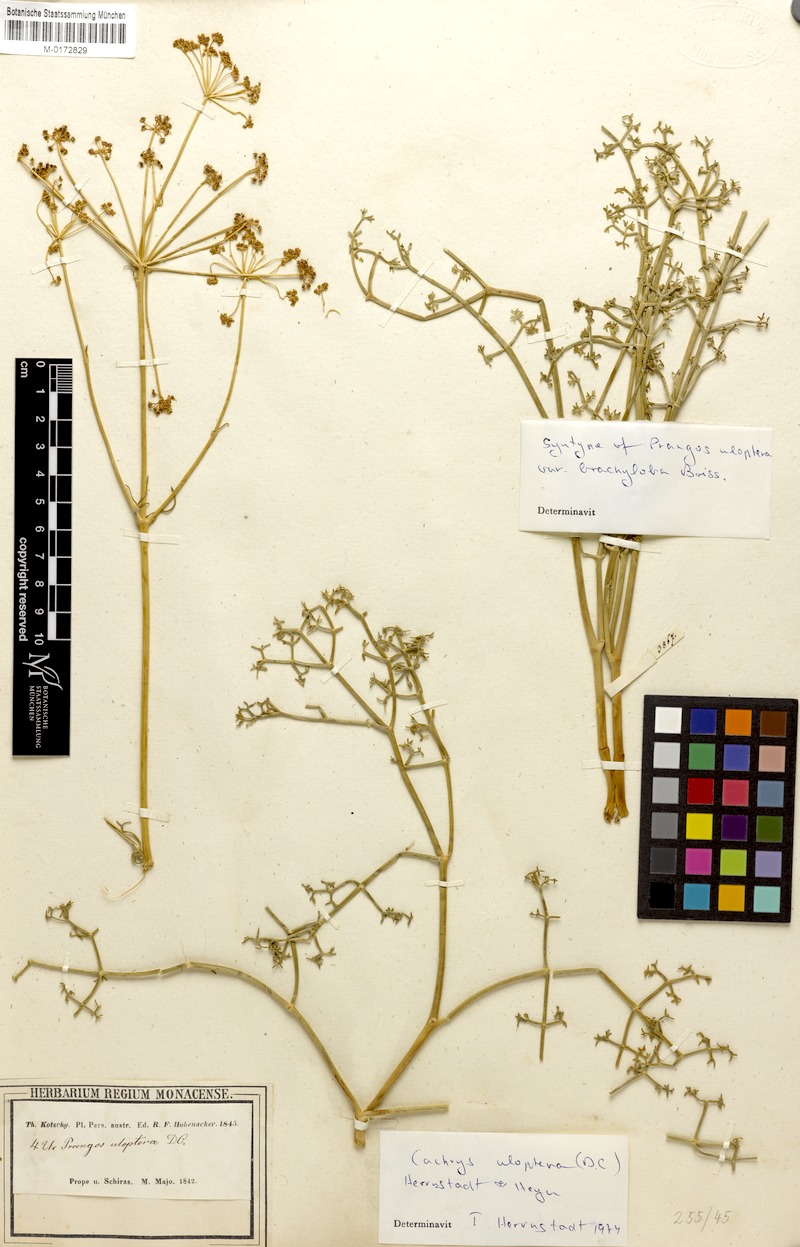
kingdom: Plantae
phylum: Tracheophyta
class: Magnoliopsida
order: Apiales
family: Apiaceae
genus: Prangos
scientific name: Prangos uloptera
